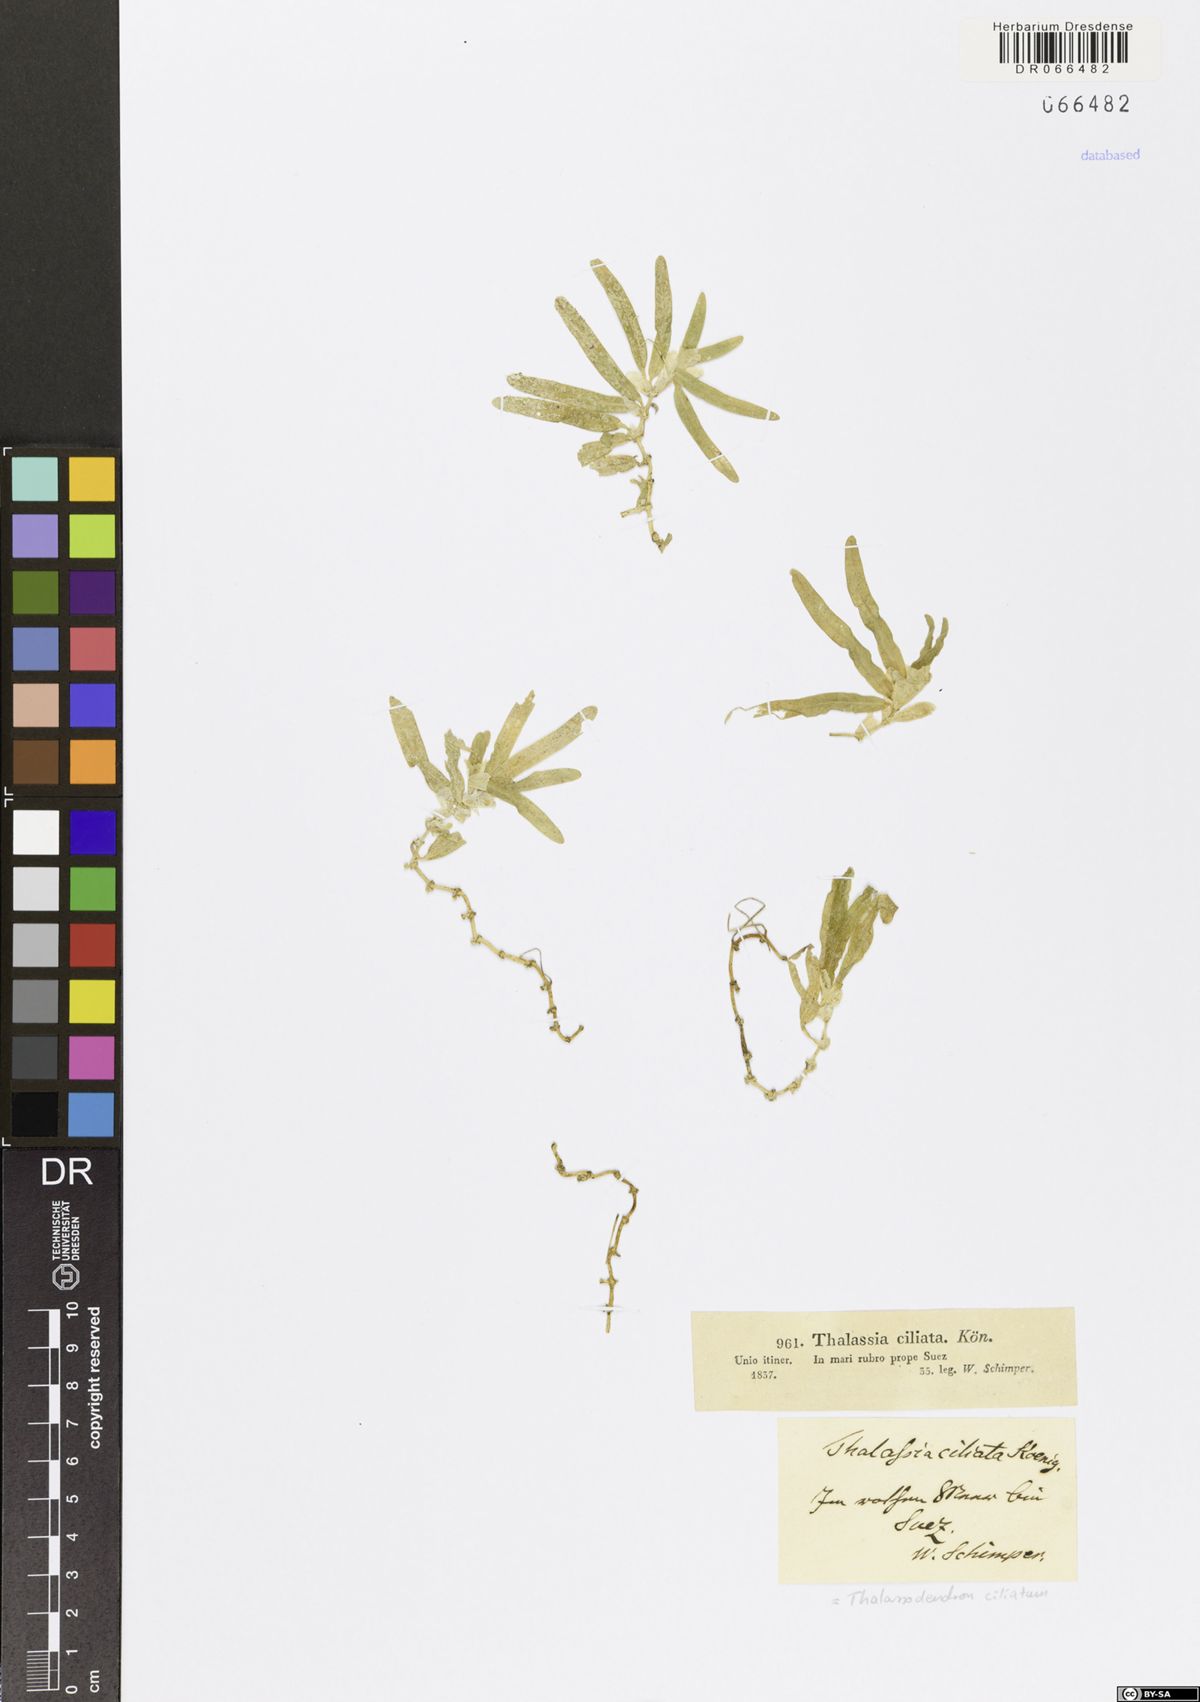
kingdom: Plantae
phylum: Tracheophyta
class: Liliopsida
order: Alismatales
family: Cymodoceaceae
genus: Thalassodendron
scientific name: Thalassodendron ciliatum
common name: Species code: tc
